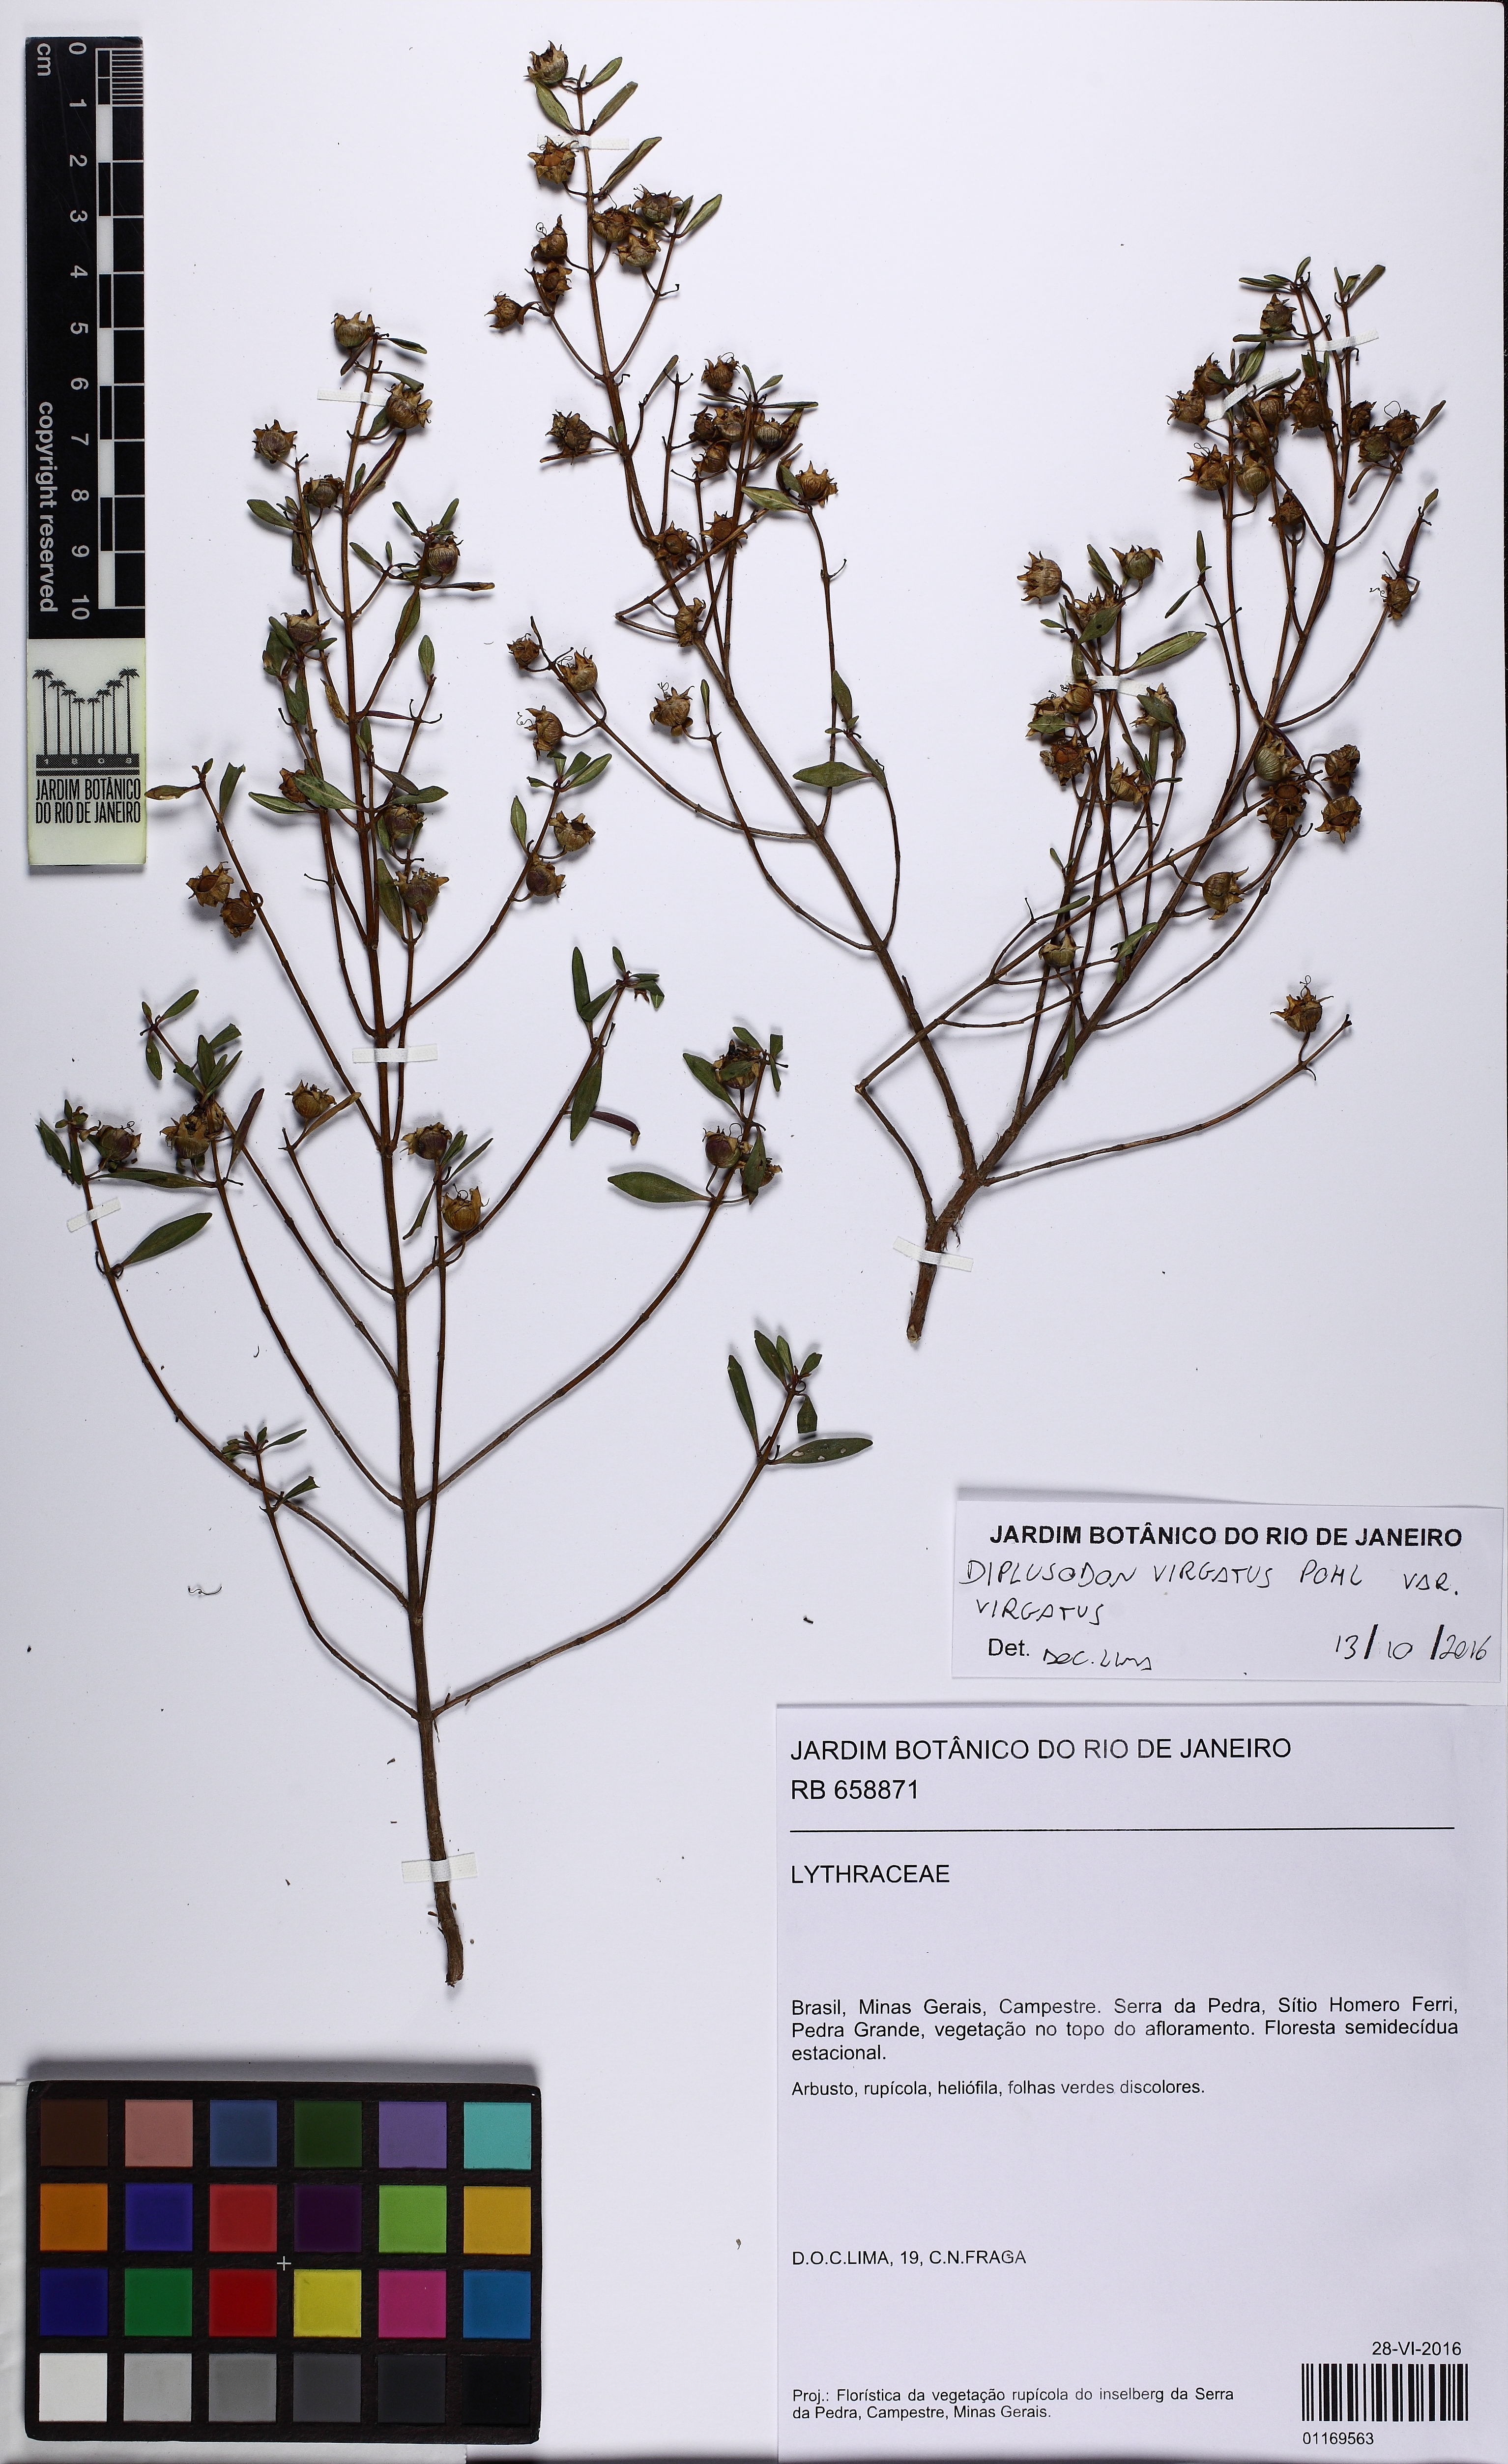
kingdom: Plantae
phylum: Tracheophyta
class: Magnoliopsida
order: Myrtales
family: Lythraceae
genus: Diplusodon
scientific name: Diplusodon virgatus
